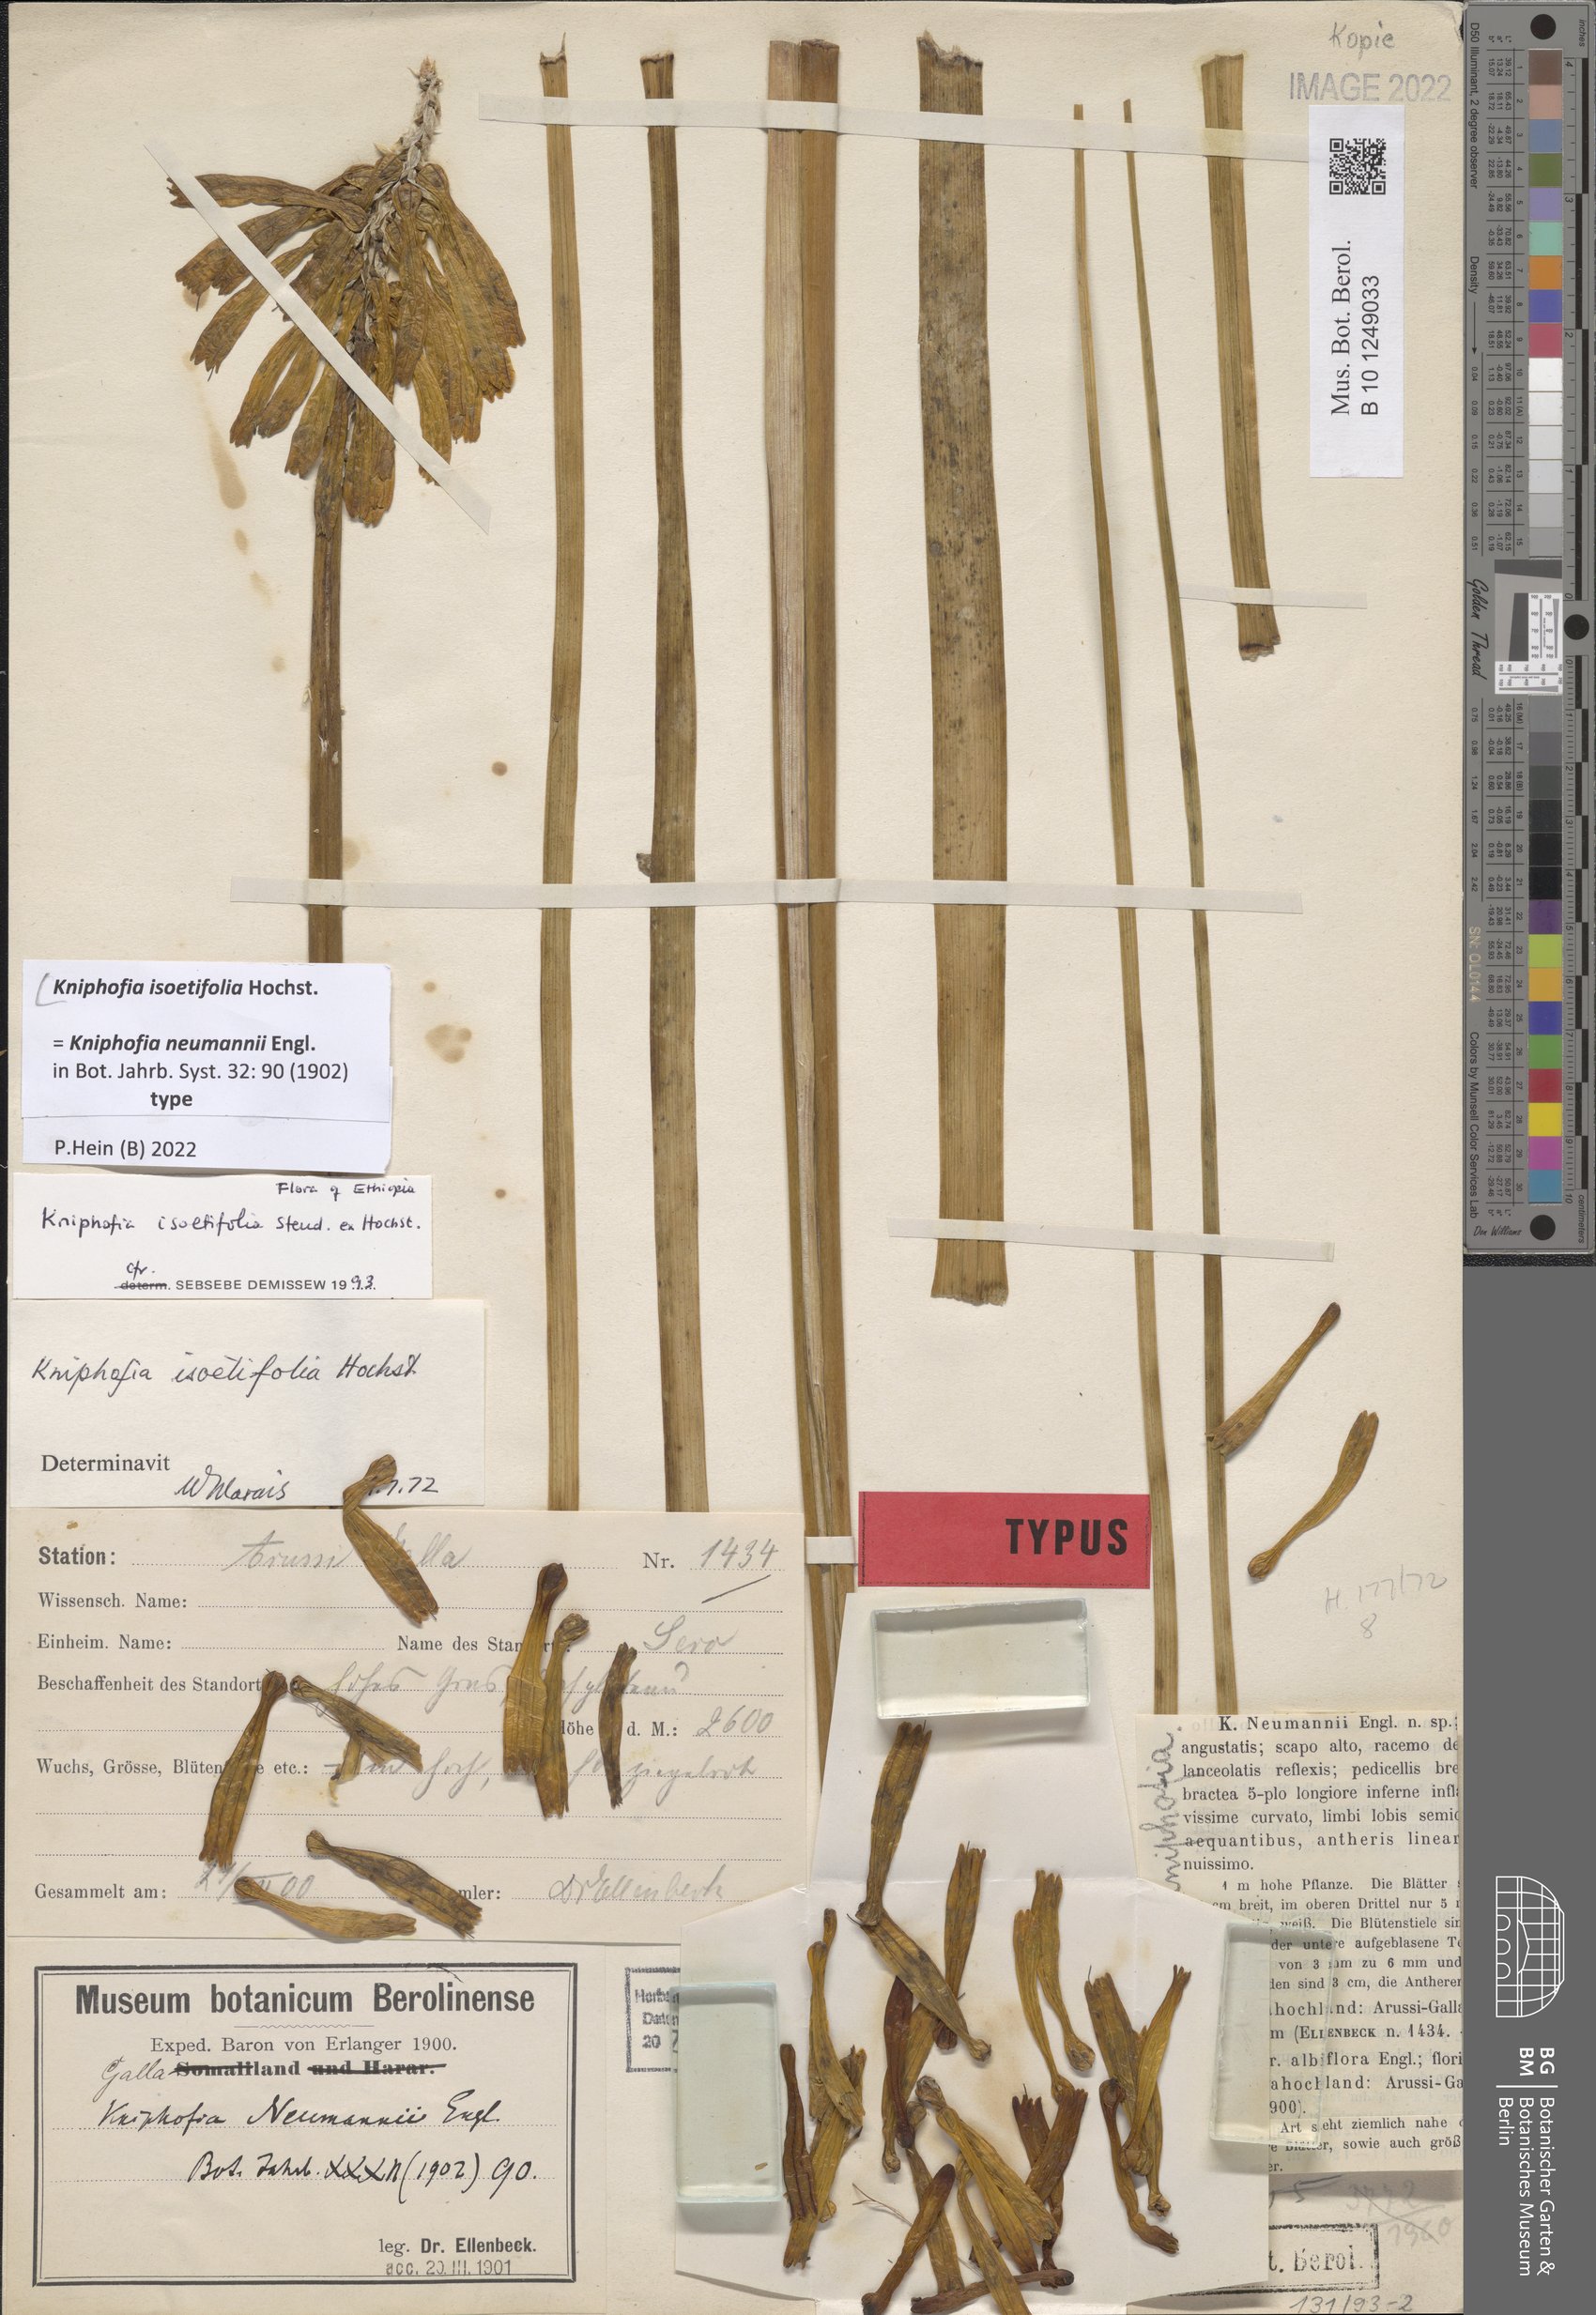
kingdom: Plantae
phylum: Tracheophyta
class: Liliopsida
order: Asparagales
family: Asphodelaceae
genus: Kniphofia
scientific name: Kniphofia isoetifolia
